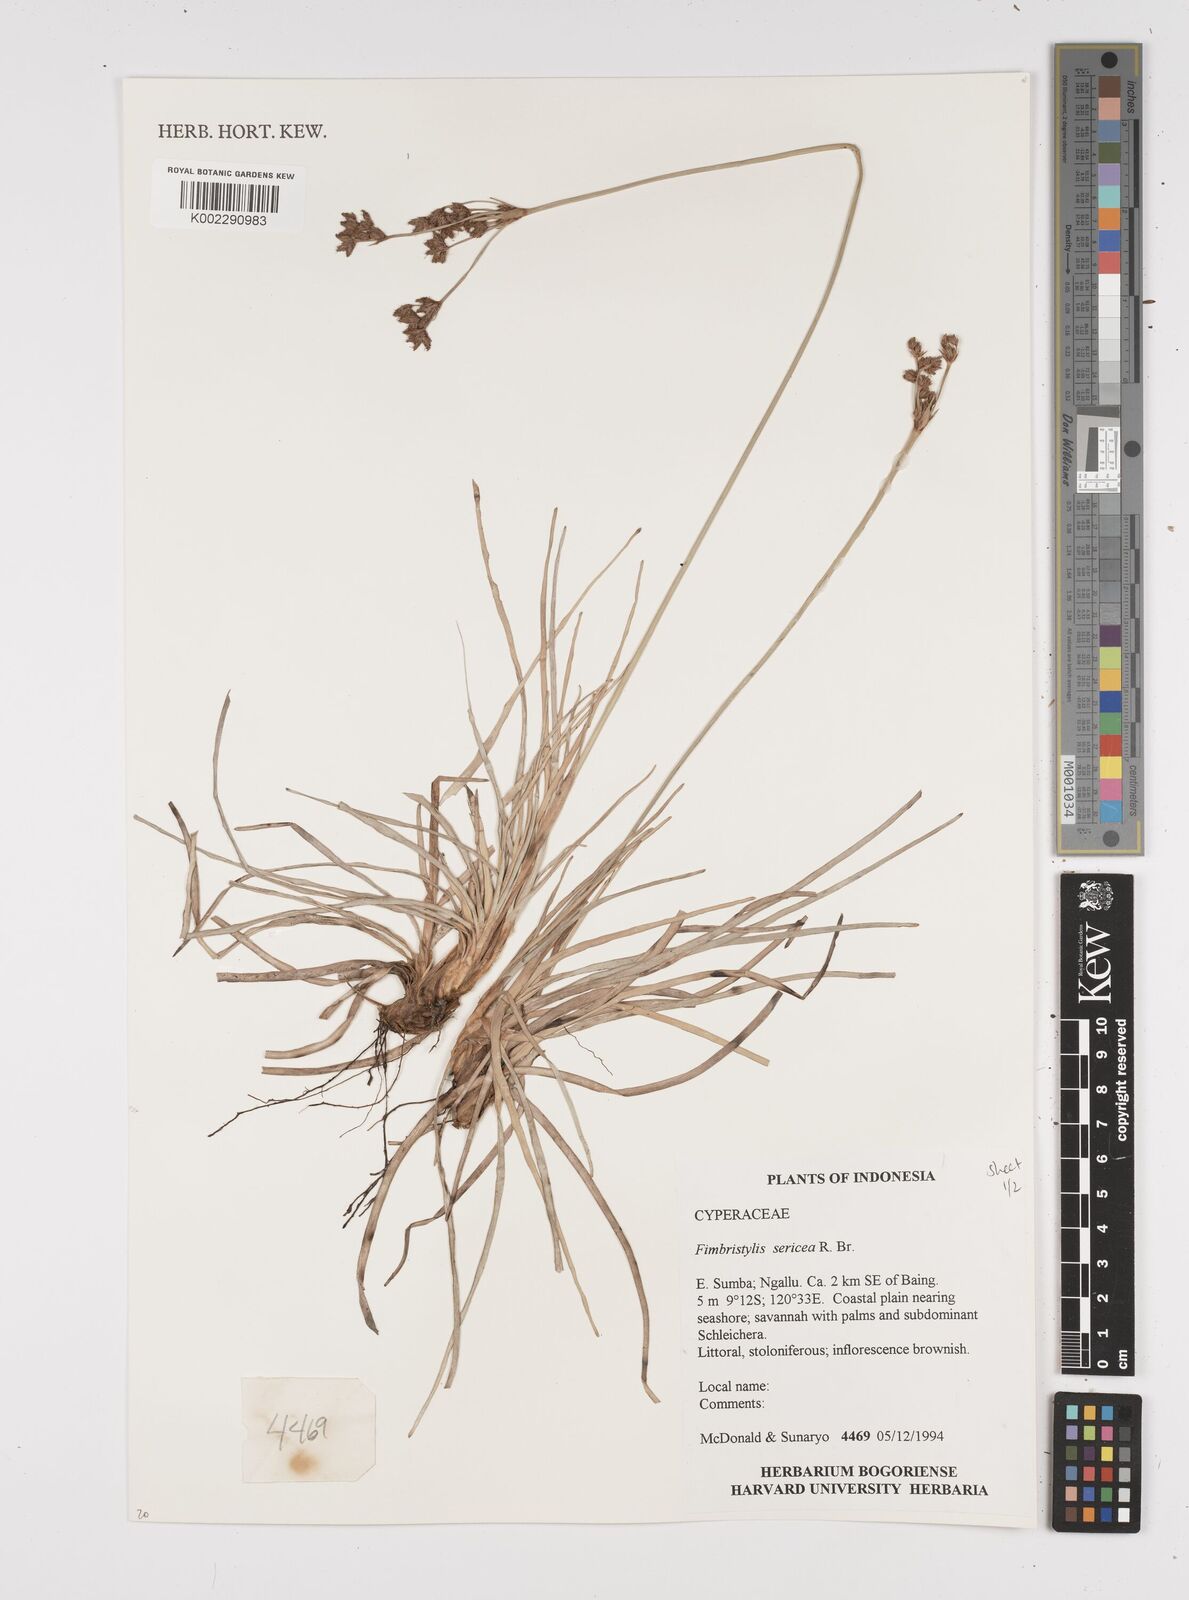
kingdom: Plantae
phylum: Tracheophyta
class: Liliopsida
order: Poales
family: Cyperaceae
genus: Fimbristylis
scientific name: Fimbristylis sericea
